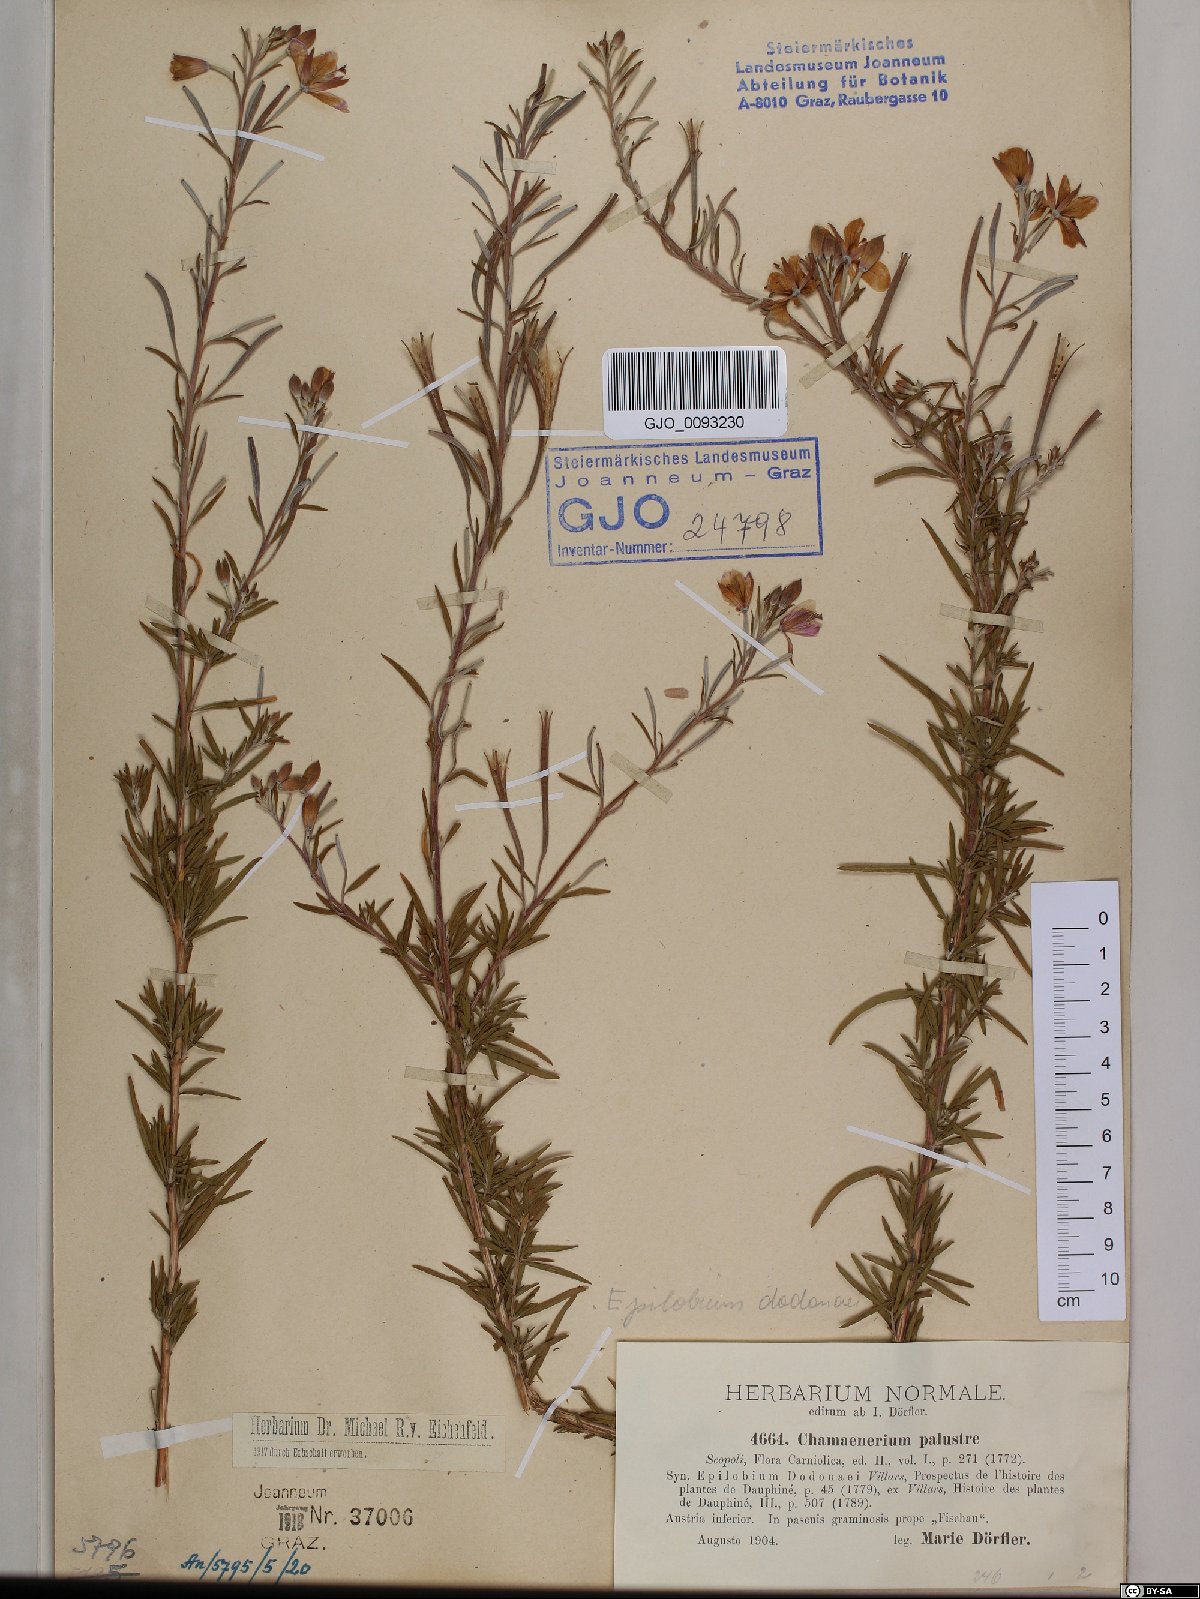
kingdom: Plantae
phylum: Tracheophyta
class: Magnoliopsida
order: Myrtales
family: Onagraceae
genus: Chamaenerion
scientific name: Chamaenerion dodonaei
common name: Rosemary-leaved willowherb
